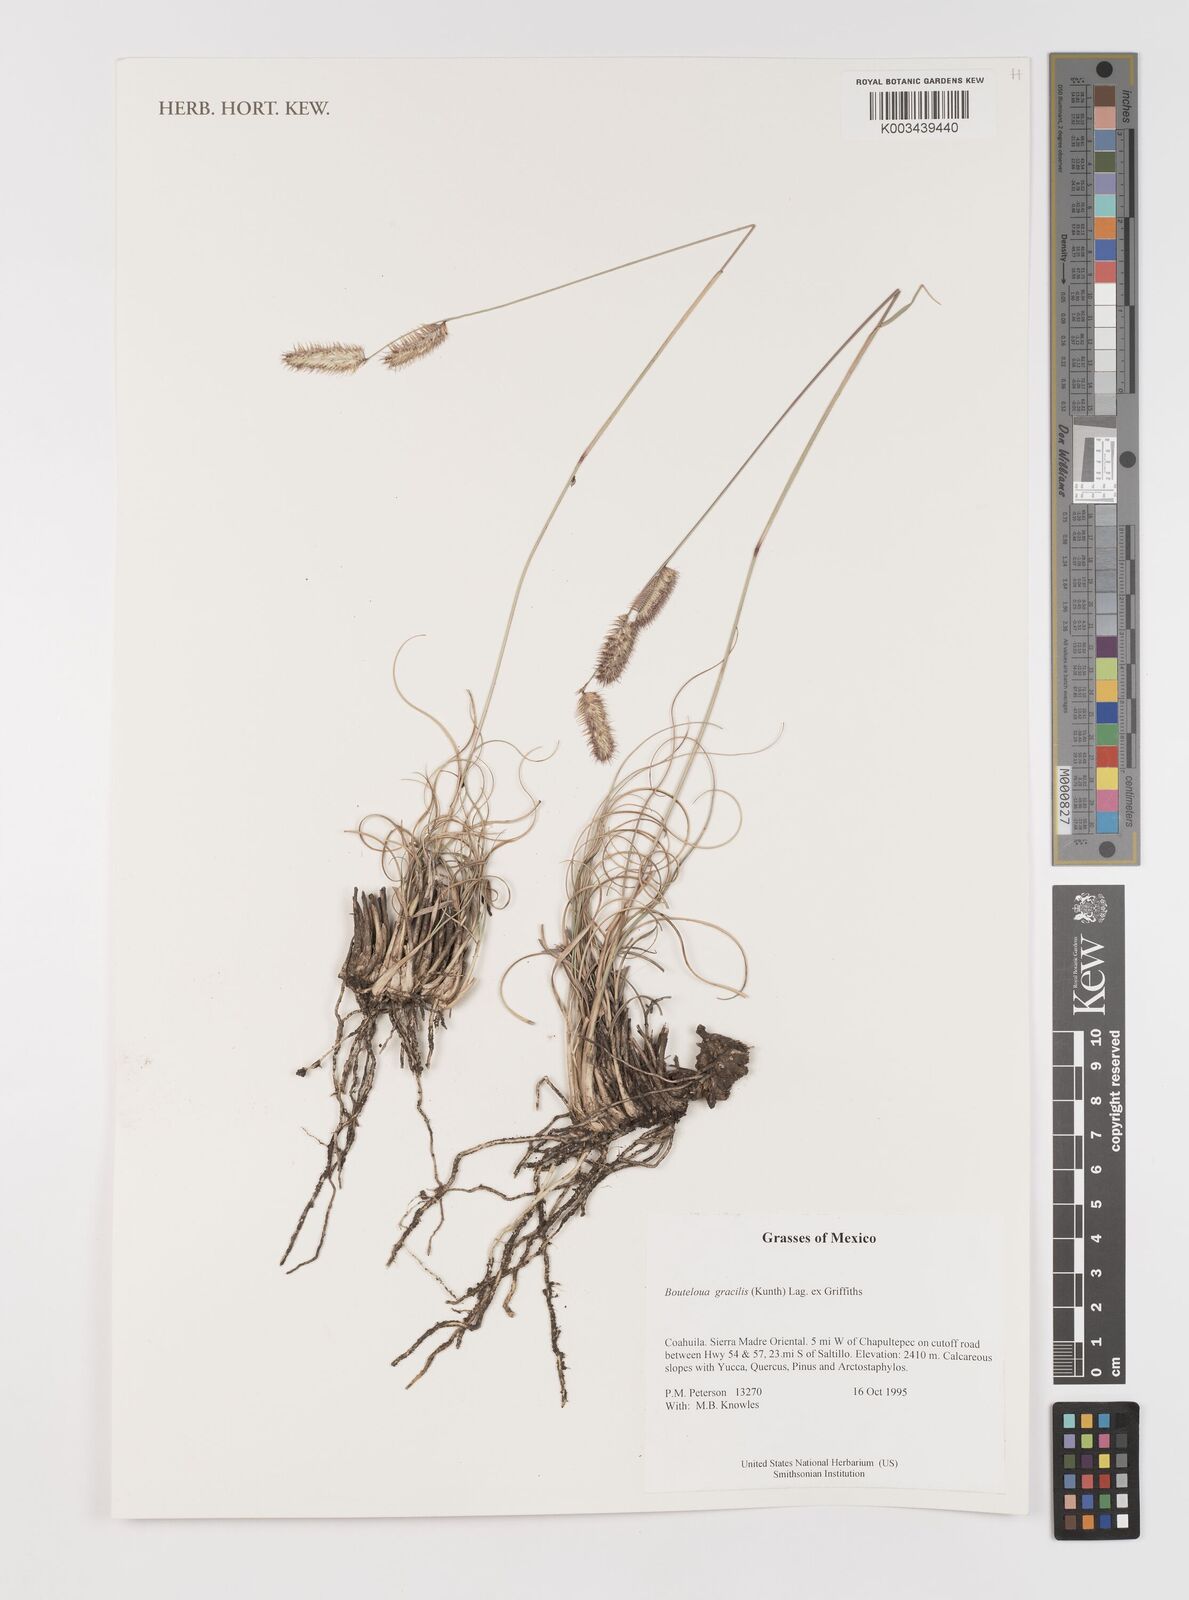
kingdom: Plantae
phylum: Tracheophyta
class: Liliopsida
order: Poales
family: Poaceae
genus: Bouteloua
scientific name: Bouteloua aristidoides
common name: Needle grama
